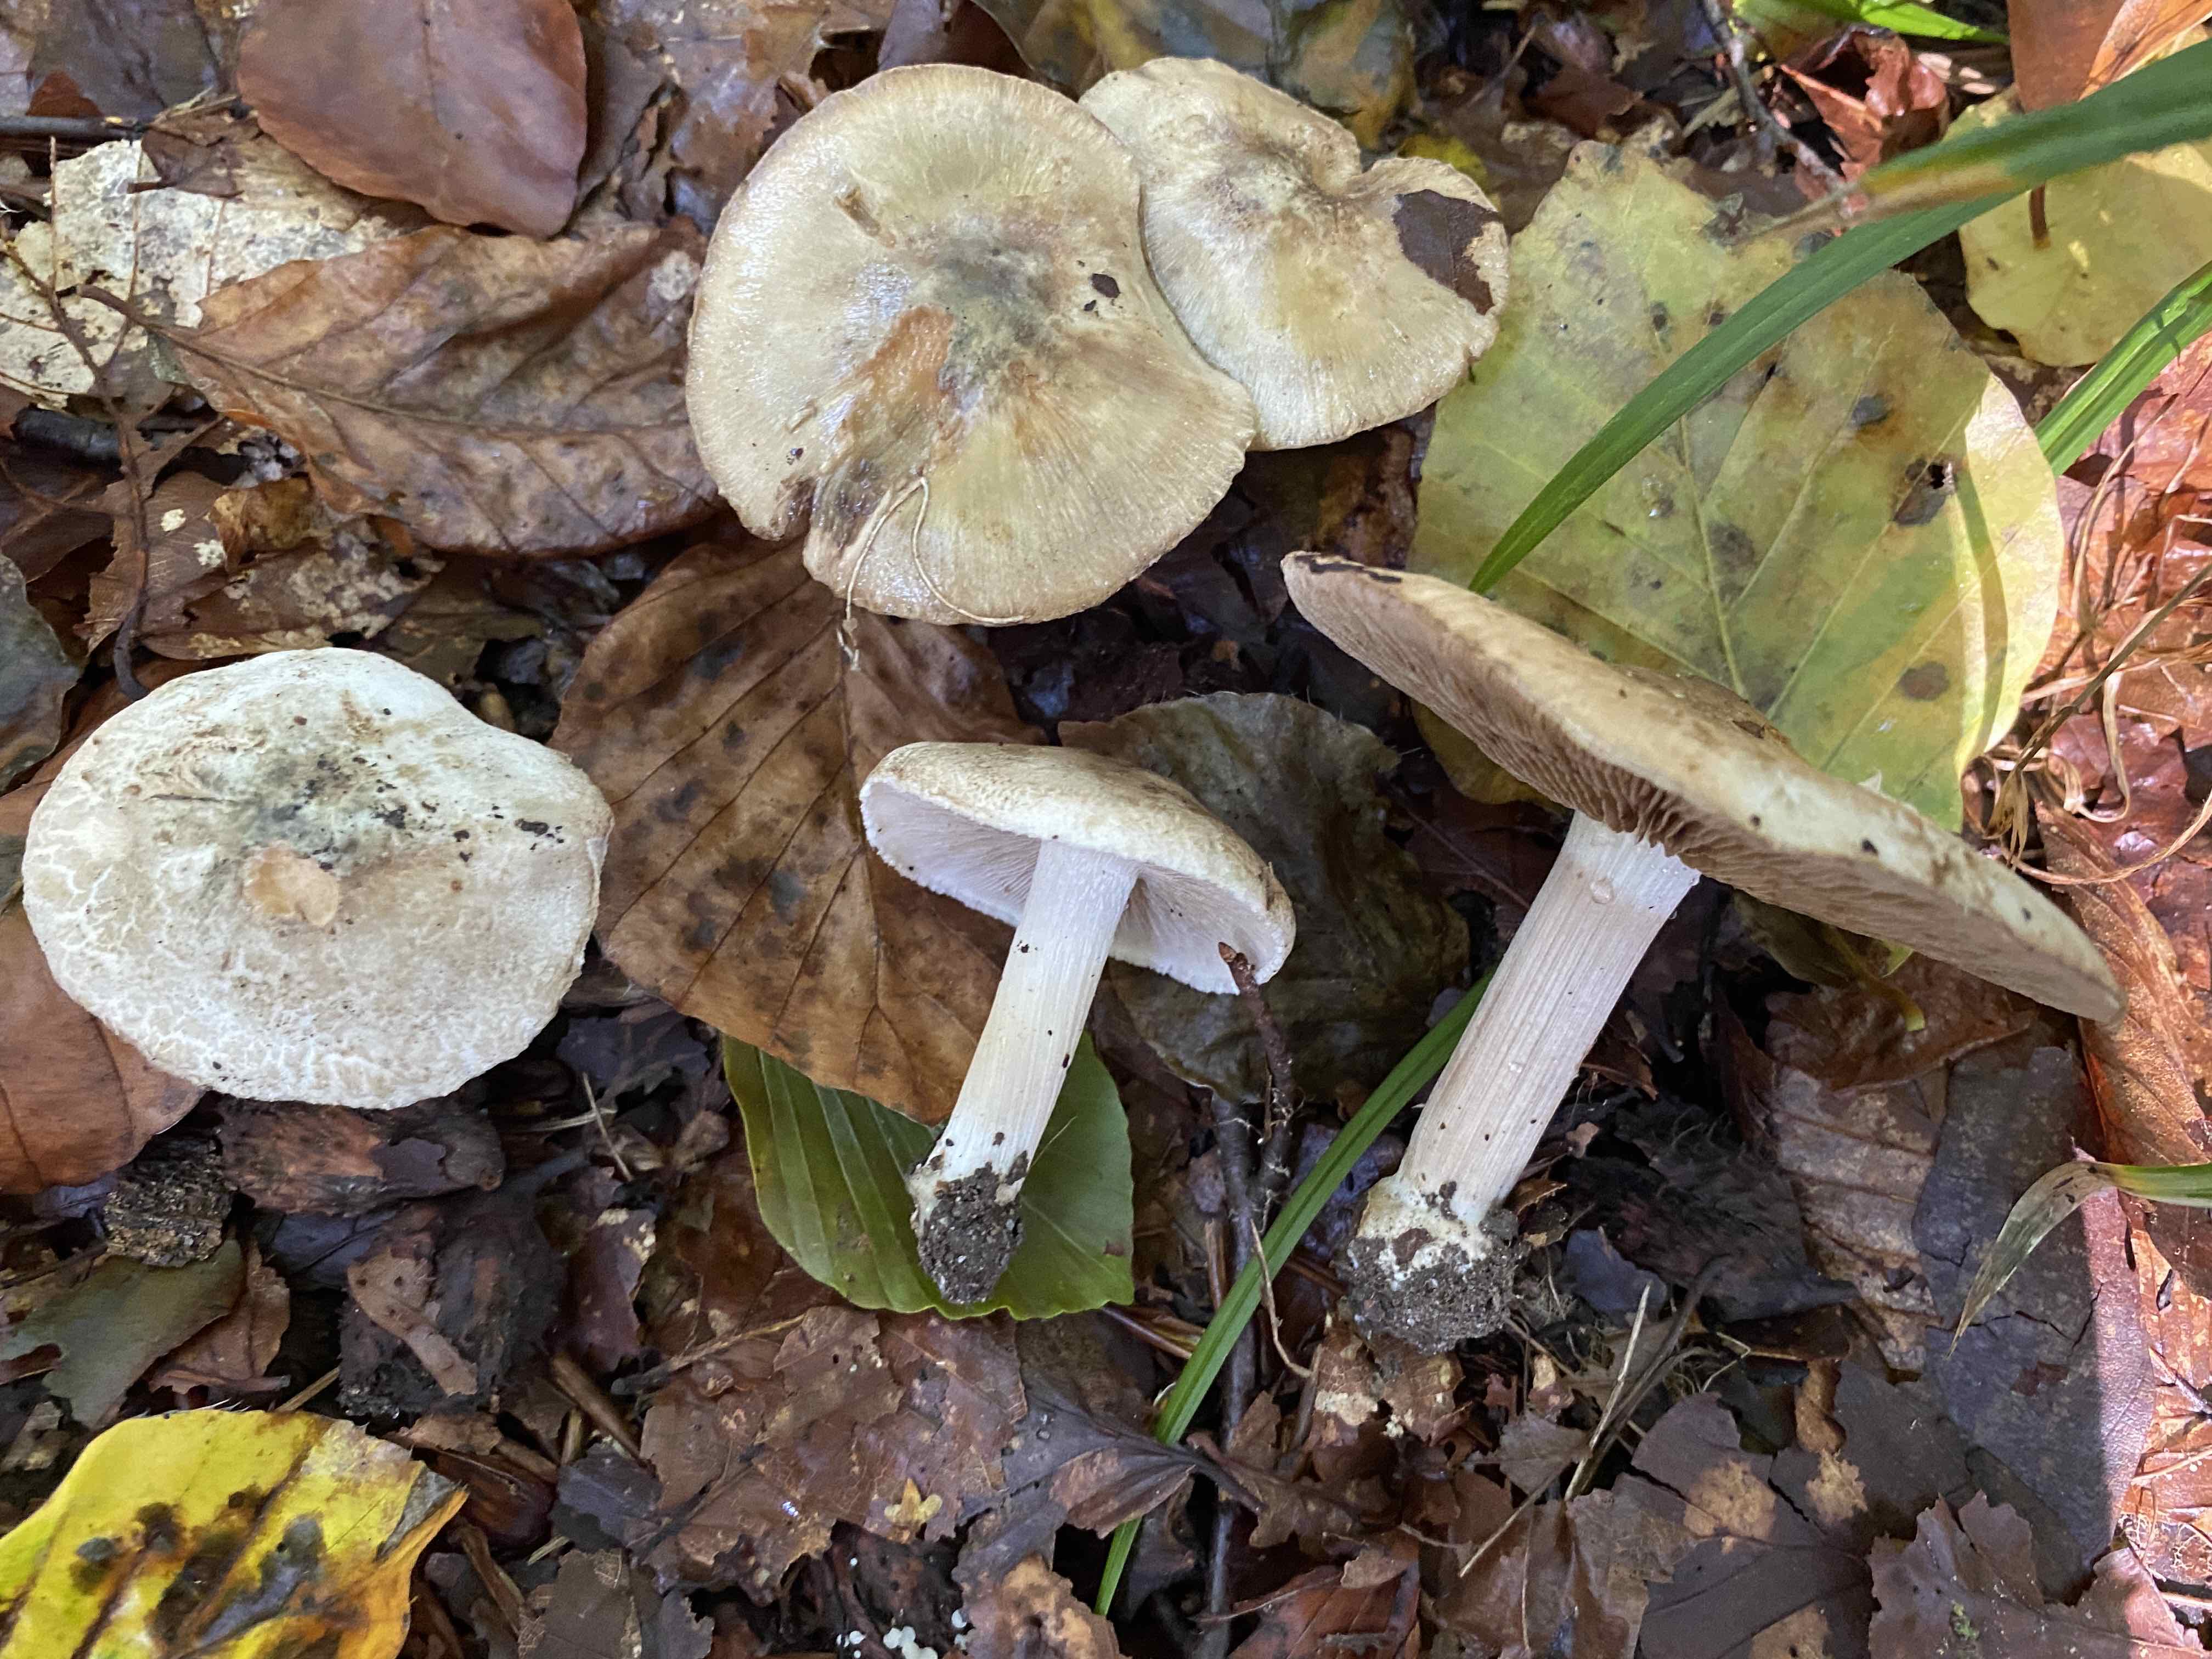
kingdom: Fungi
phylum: Basidiomycota
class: Agaricomycetes
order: Agaricales
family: Inocybaceae
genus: Inocybe
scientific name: Inocybe corydalina
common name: grønpuklet trævlhat
